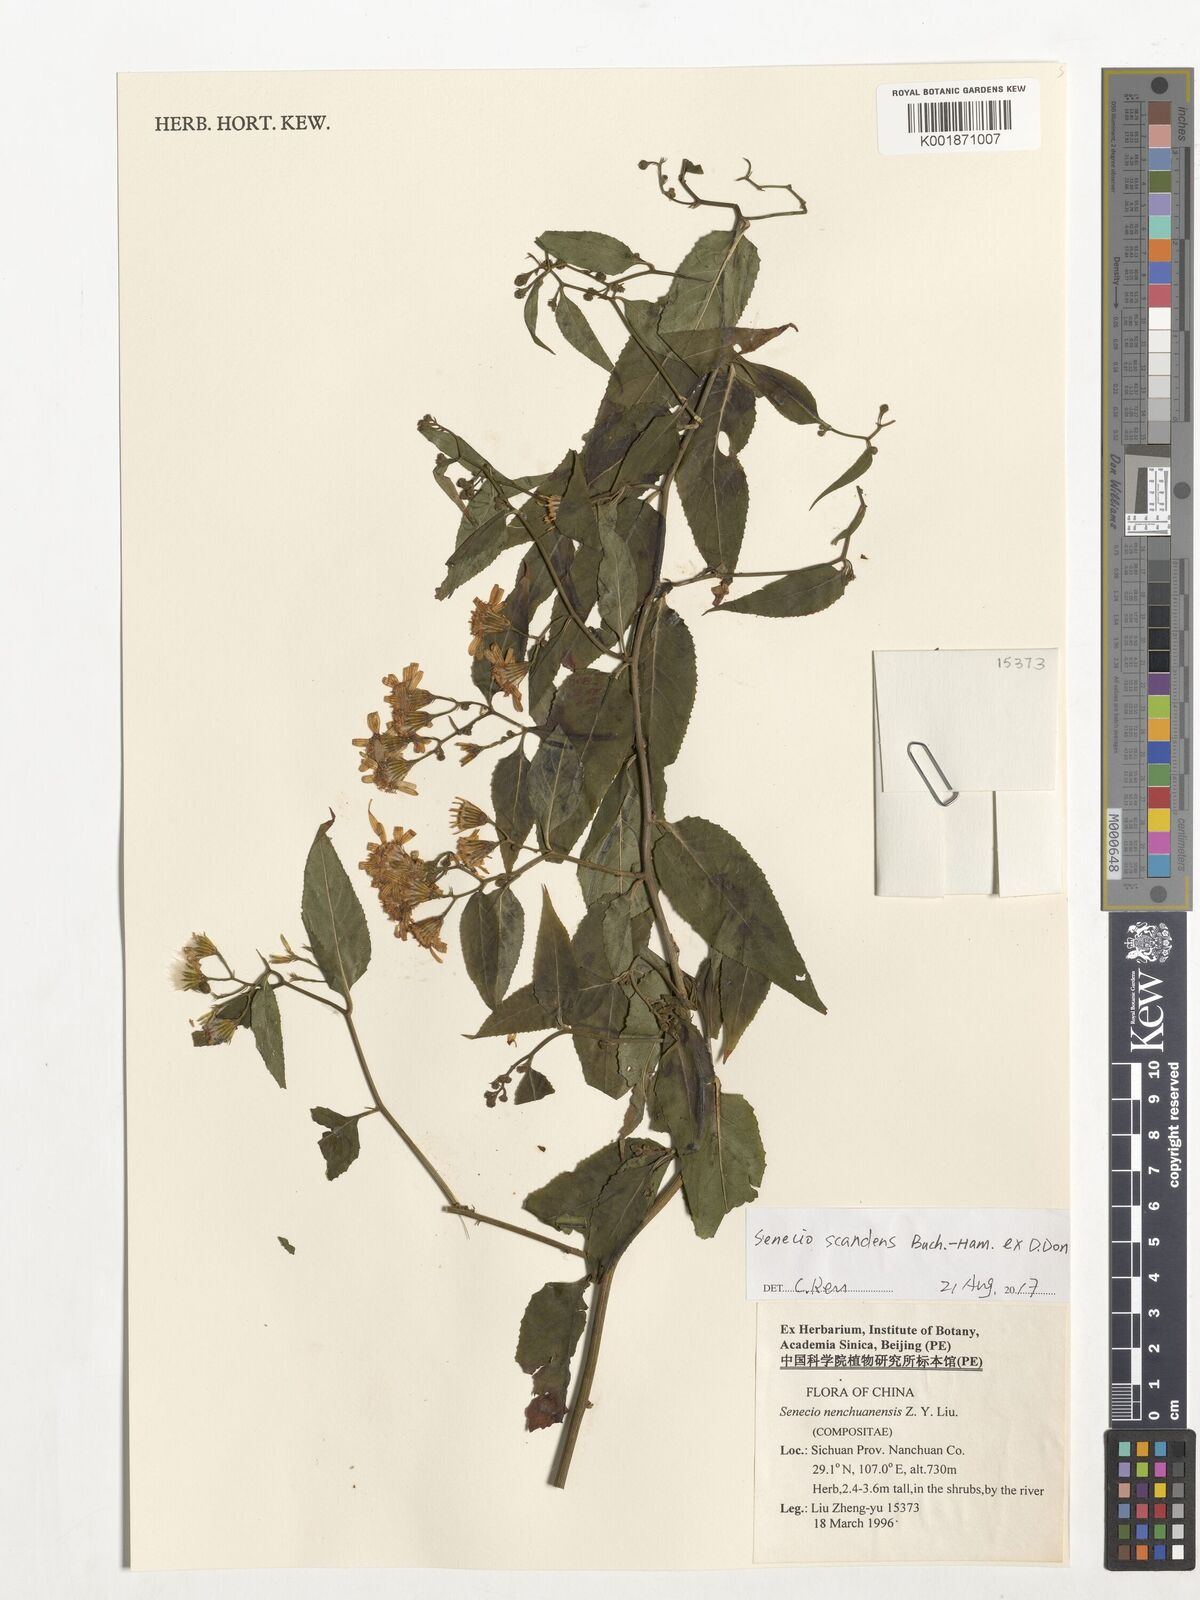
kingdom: Plantae
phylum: Tracheophyta
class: Magnoliopsida
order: Asterales
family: Asteraceae
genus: Senecio
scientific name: Senecio scandens
